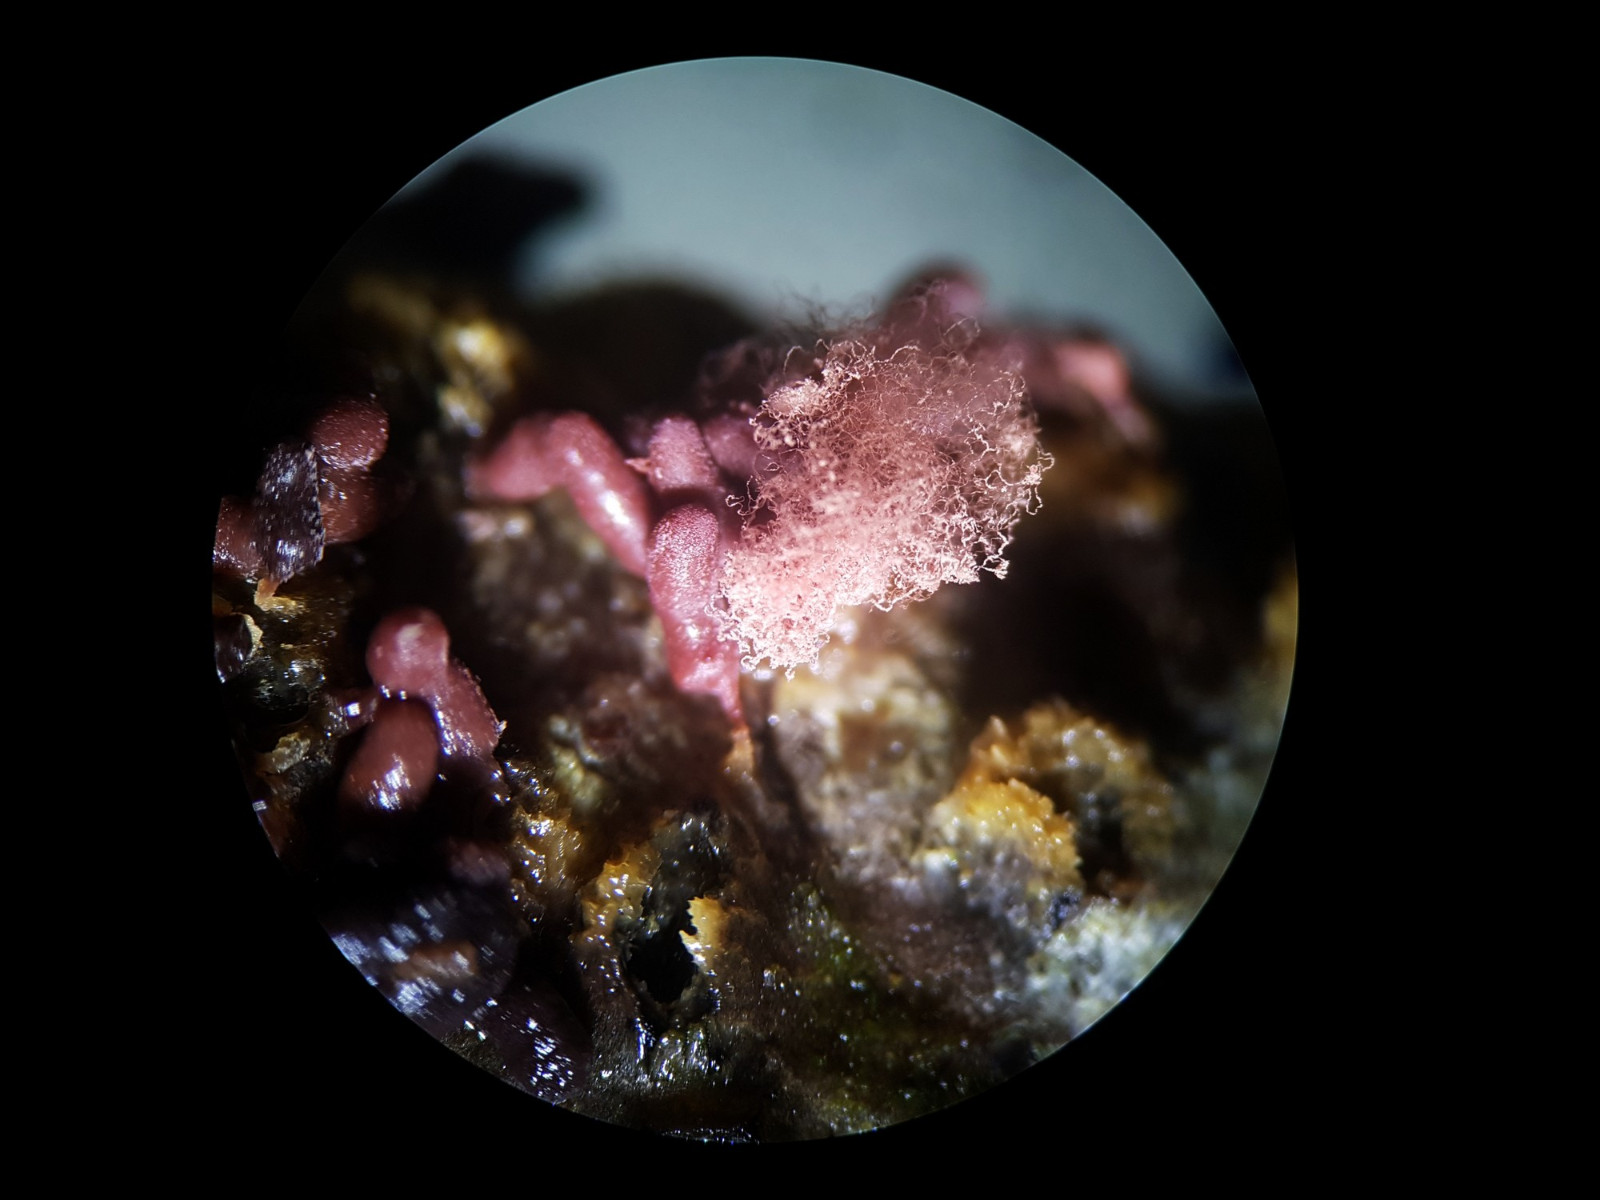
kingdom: Protozoa
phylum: Amoebozoa
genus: Arcyria
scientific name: Arcyria
